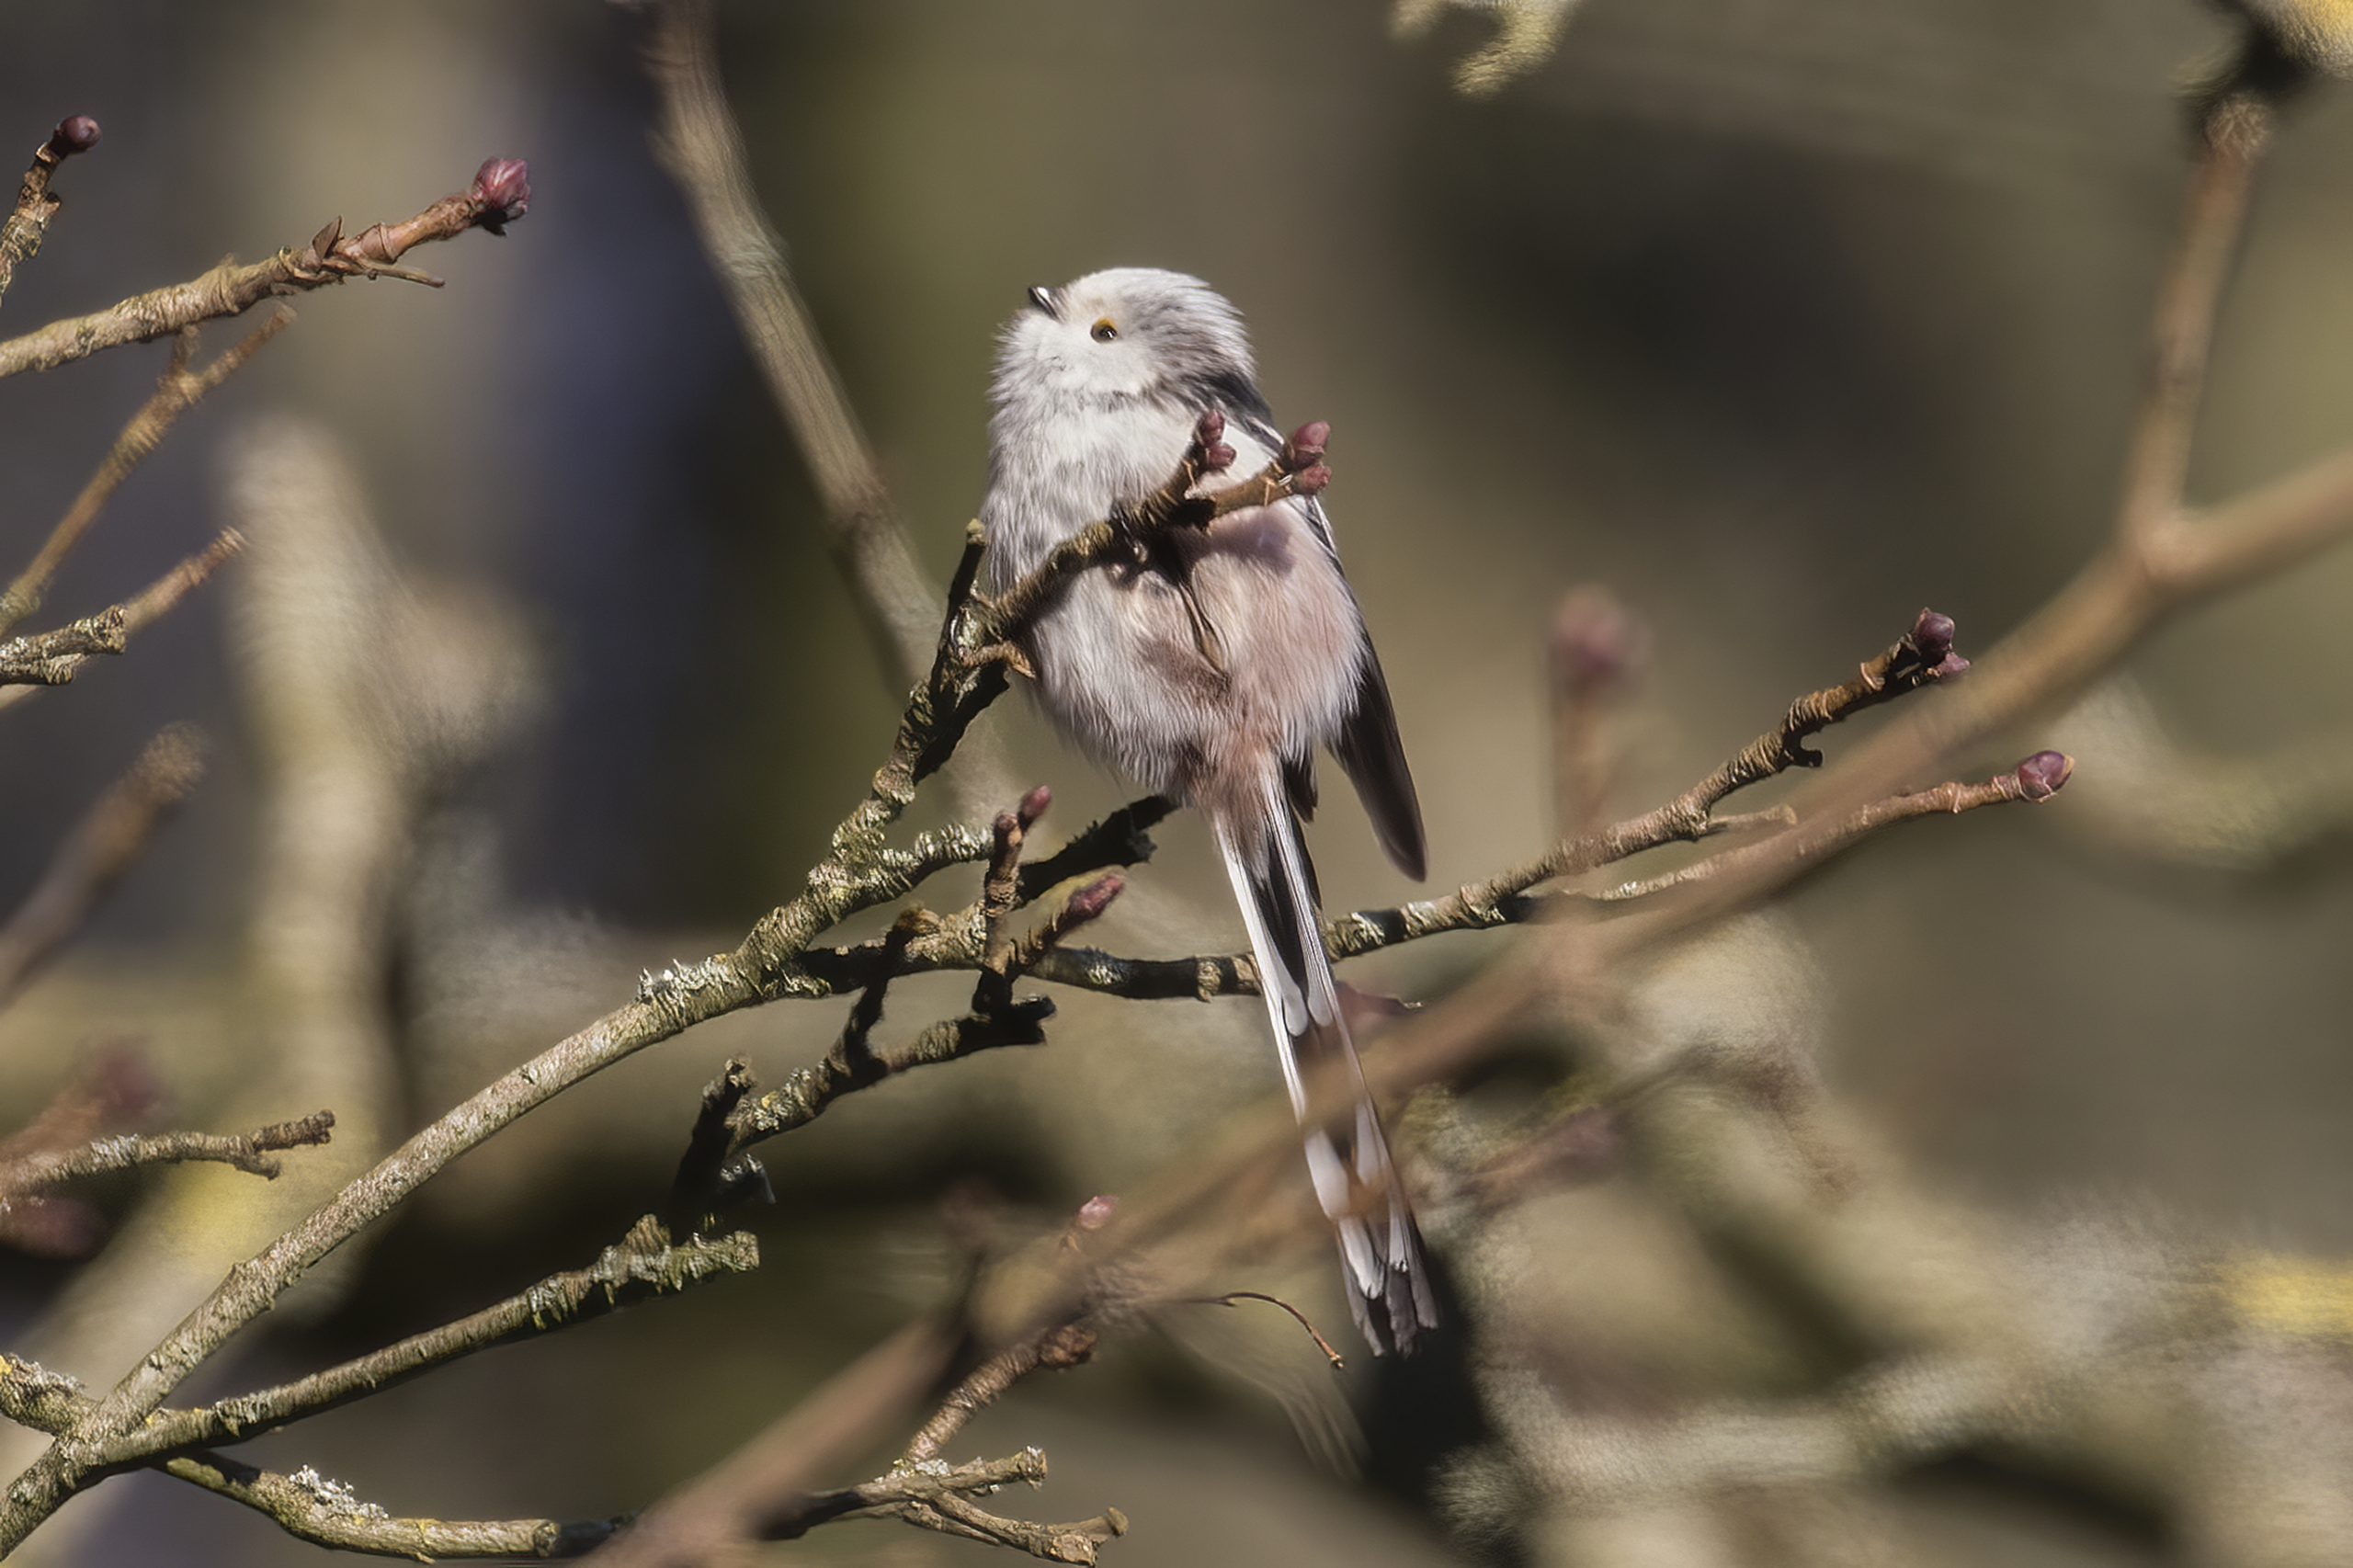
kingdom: Animalia
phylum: Chordata
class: Aves
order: Passeriformes
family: Aegithalidae
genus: Aegithalos
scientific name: Aegithalos caudatus
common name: Halemejse
